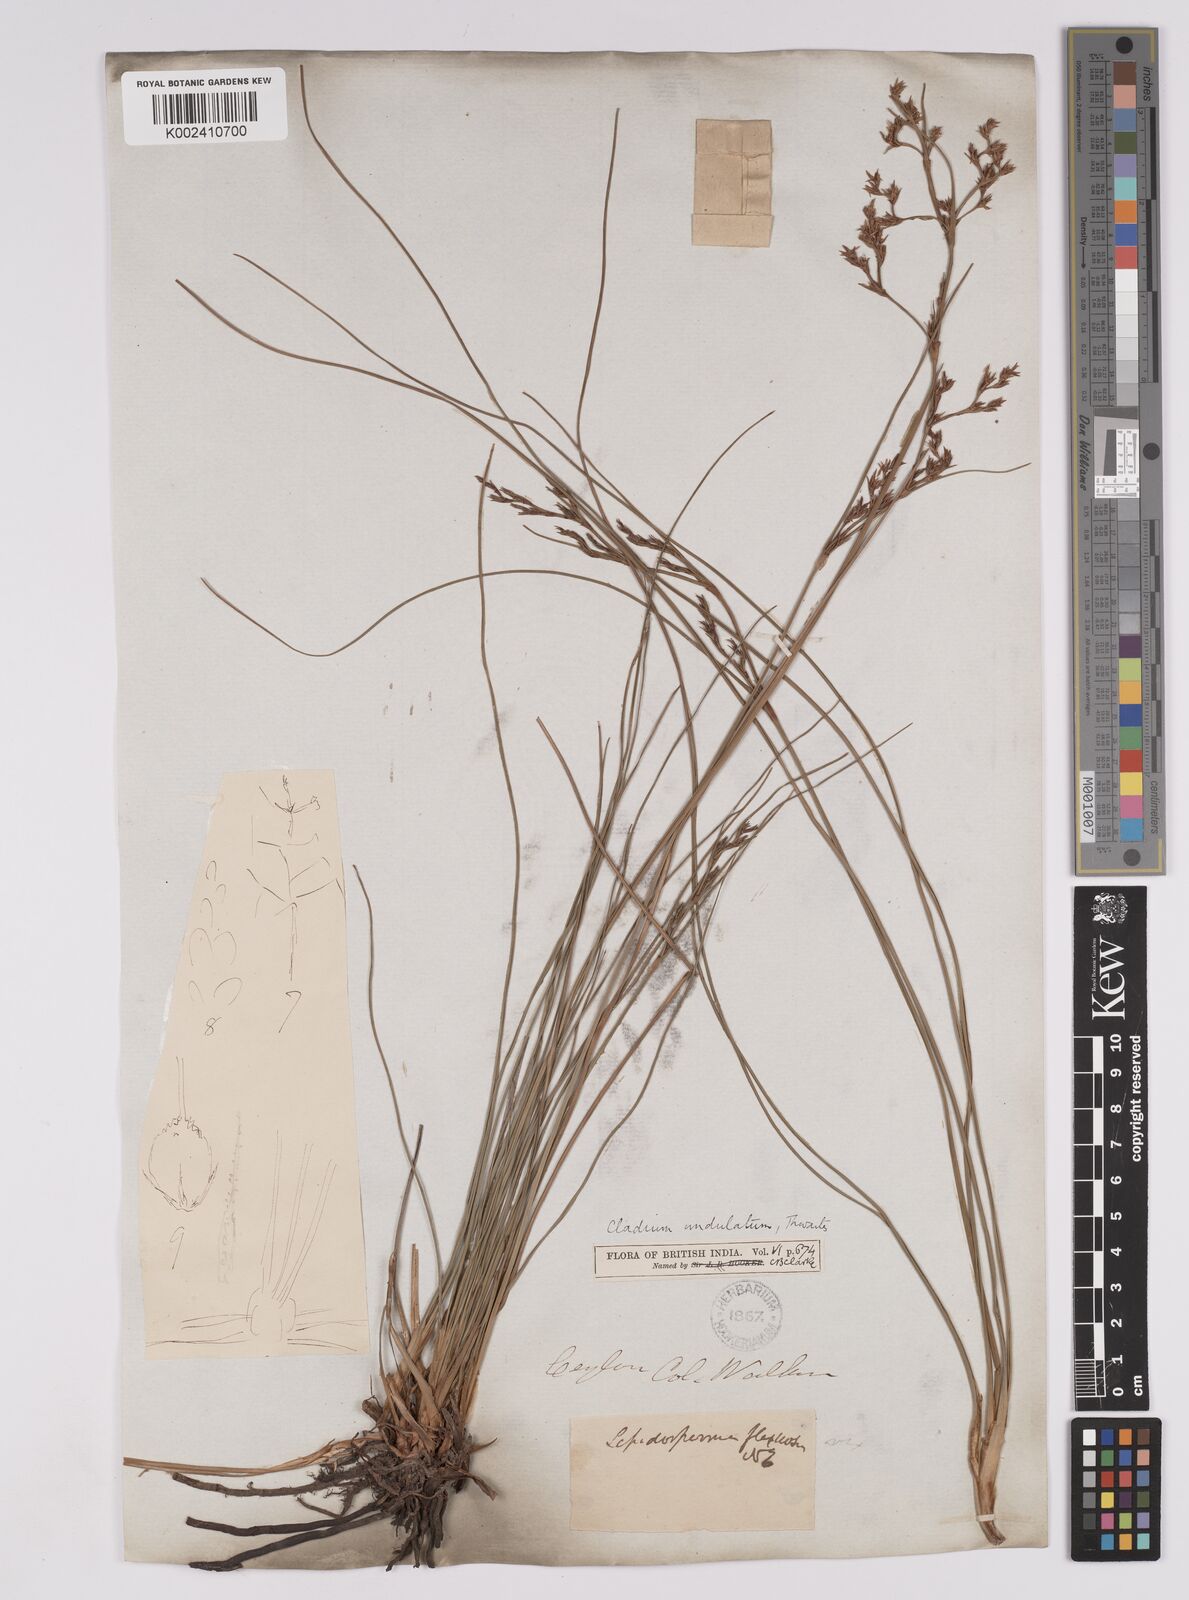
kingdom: Plantae
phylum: Tracheophyta
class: Liliopsida
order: Poales
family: Cyperaceae
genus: Anthelepis
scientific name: Anthelepis undulata
